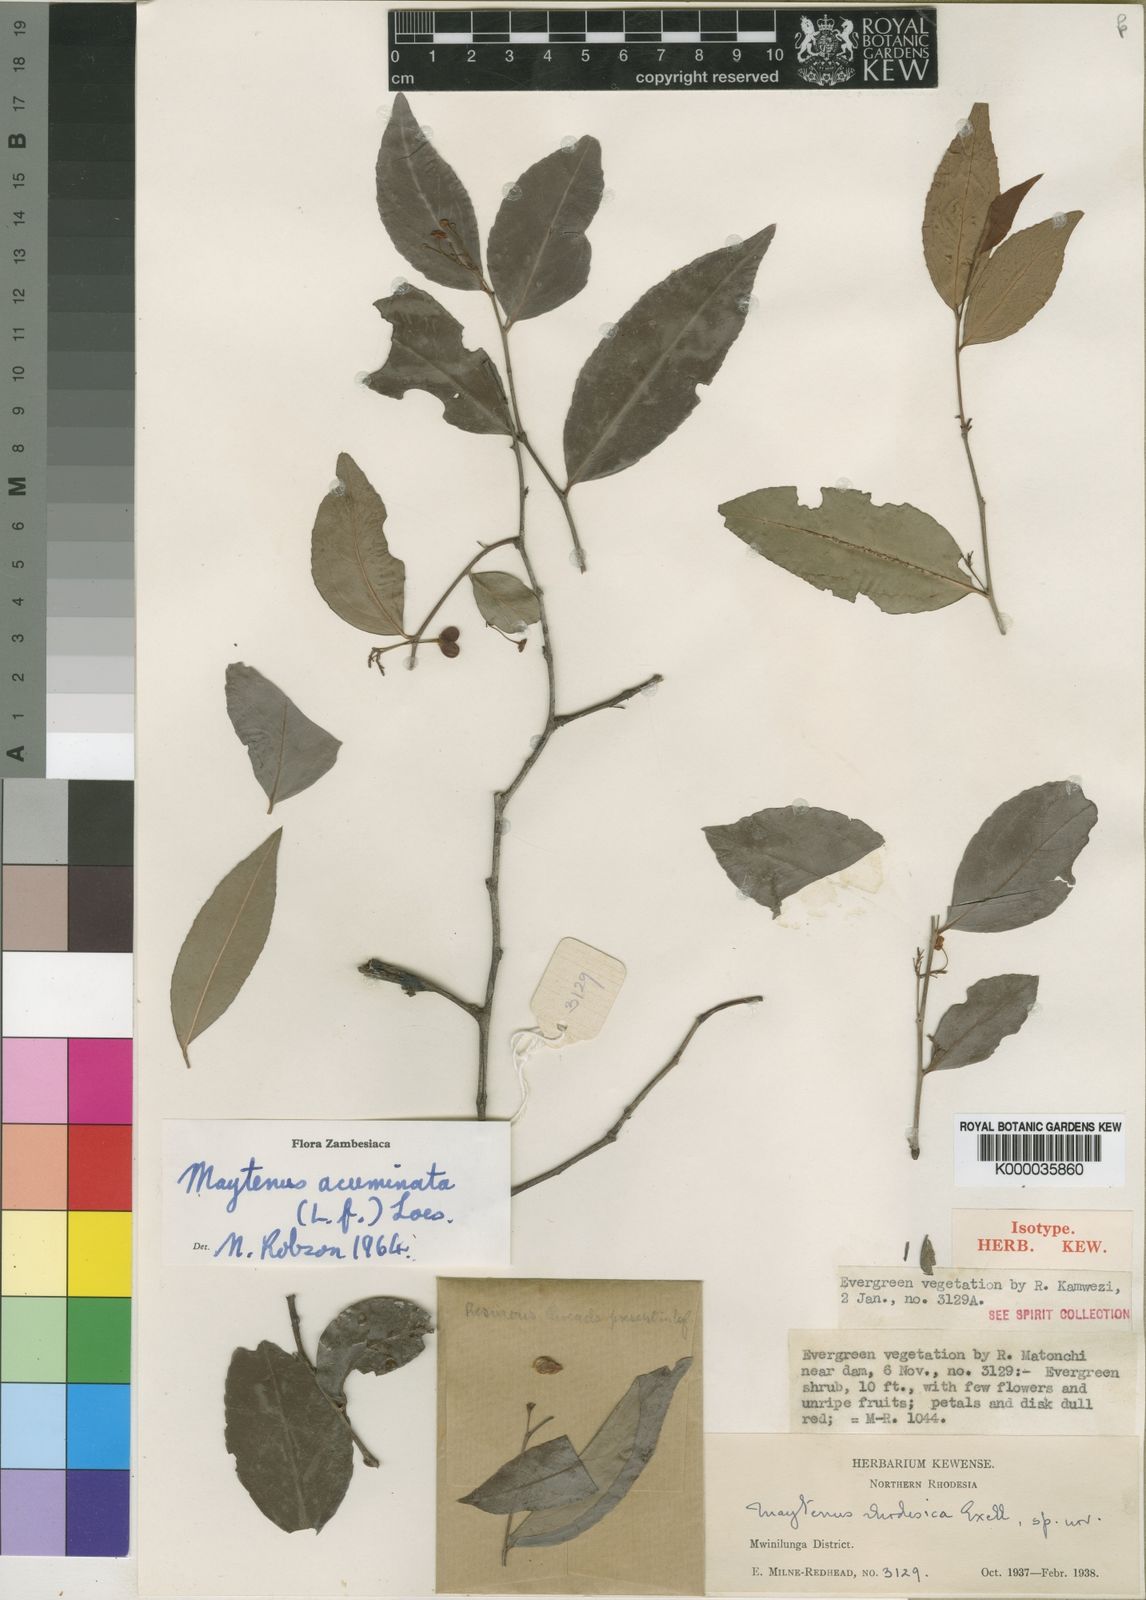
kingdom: Plantae
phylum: Tracheophyta
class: Magnoliopsida
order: Celastrales
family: Celastraceae
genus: Gymnosporia
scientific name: Gymnosporia acuminata
